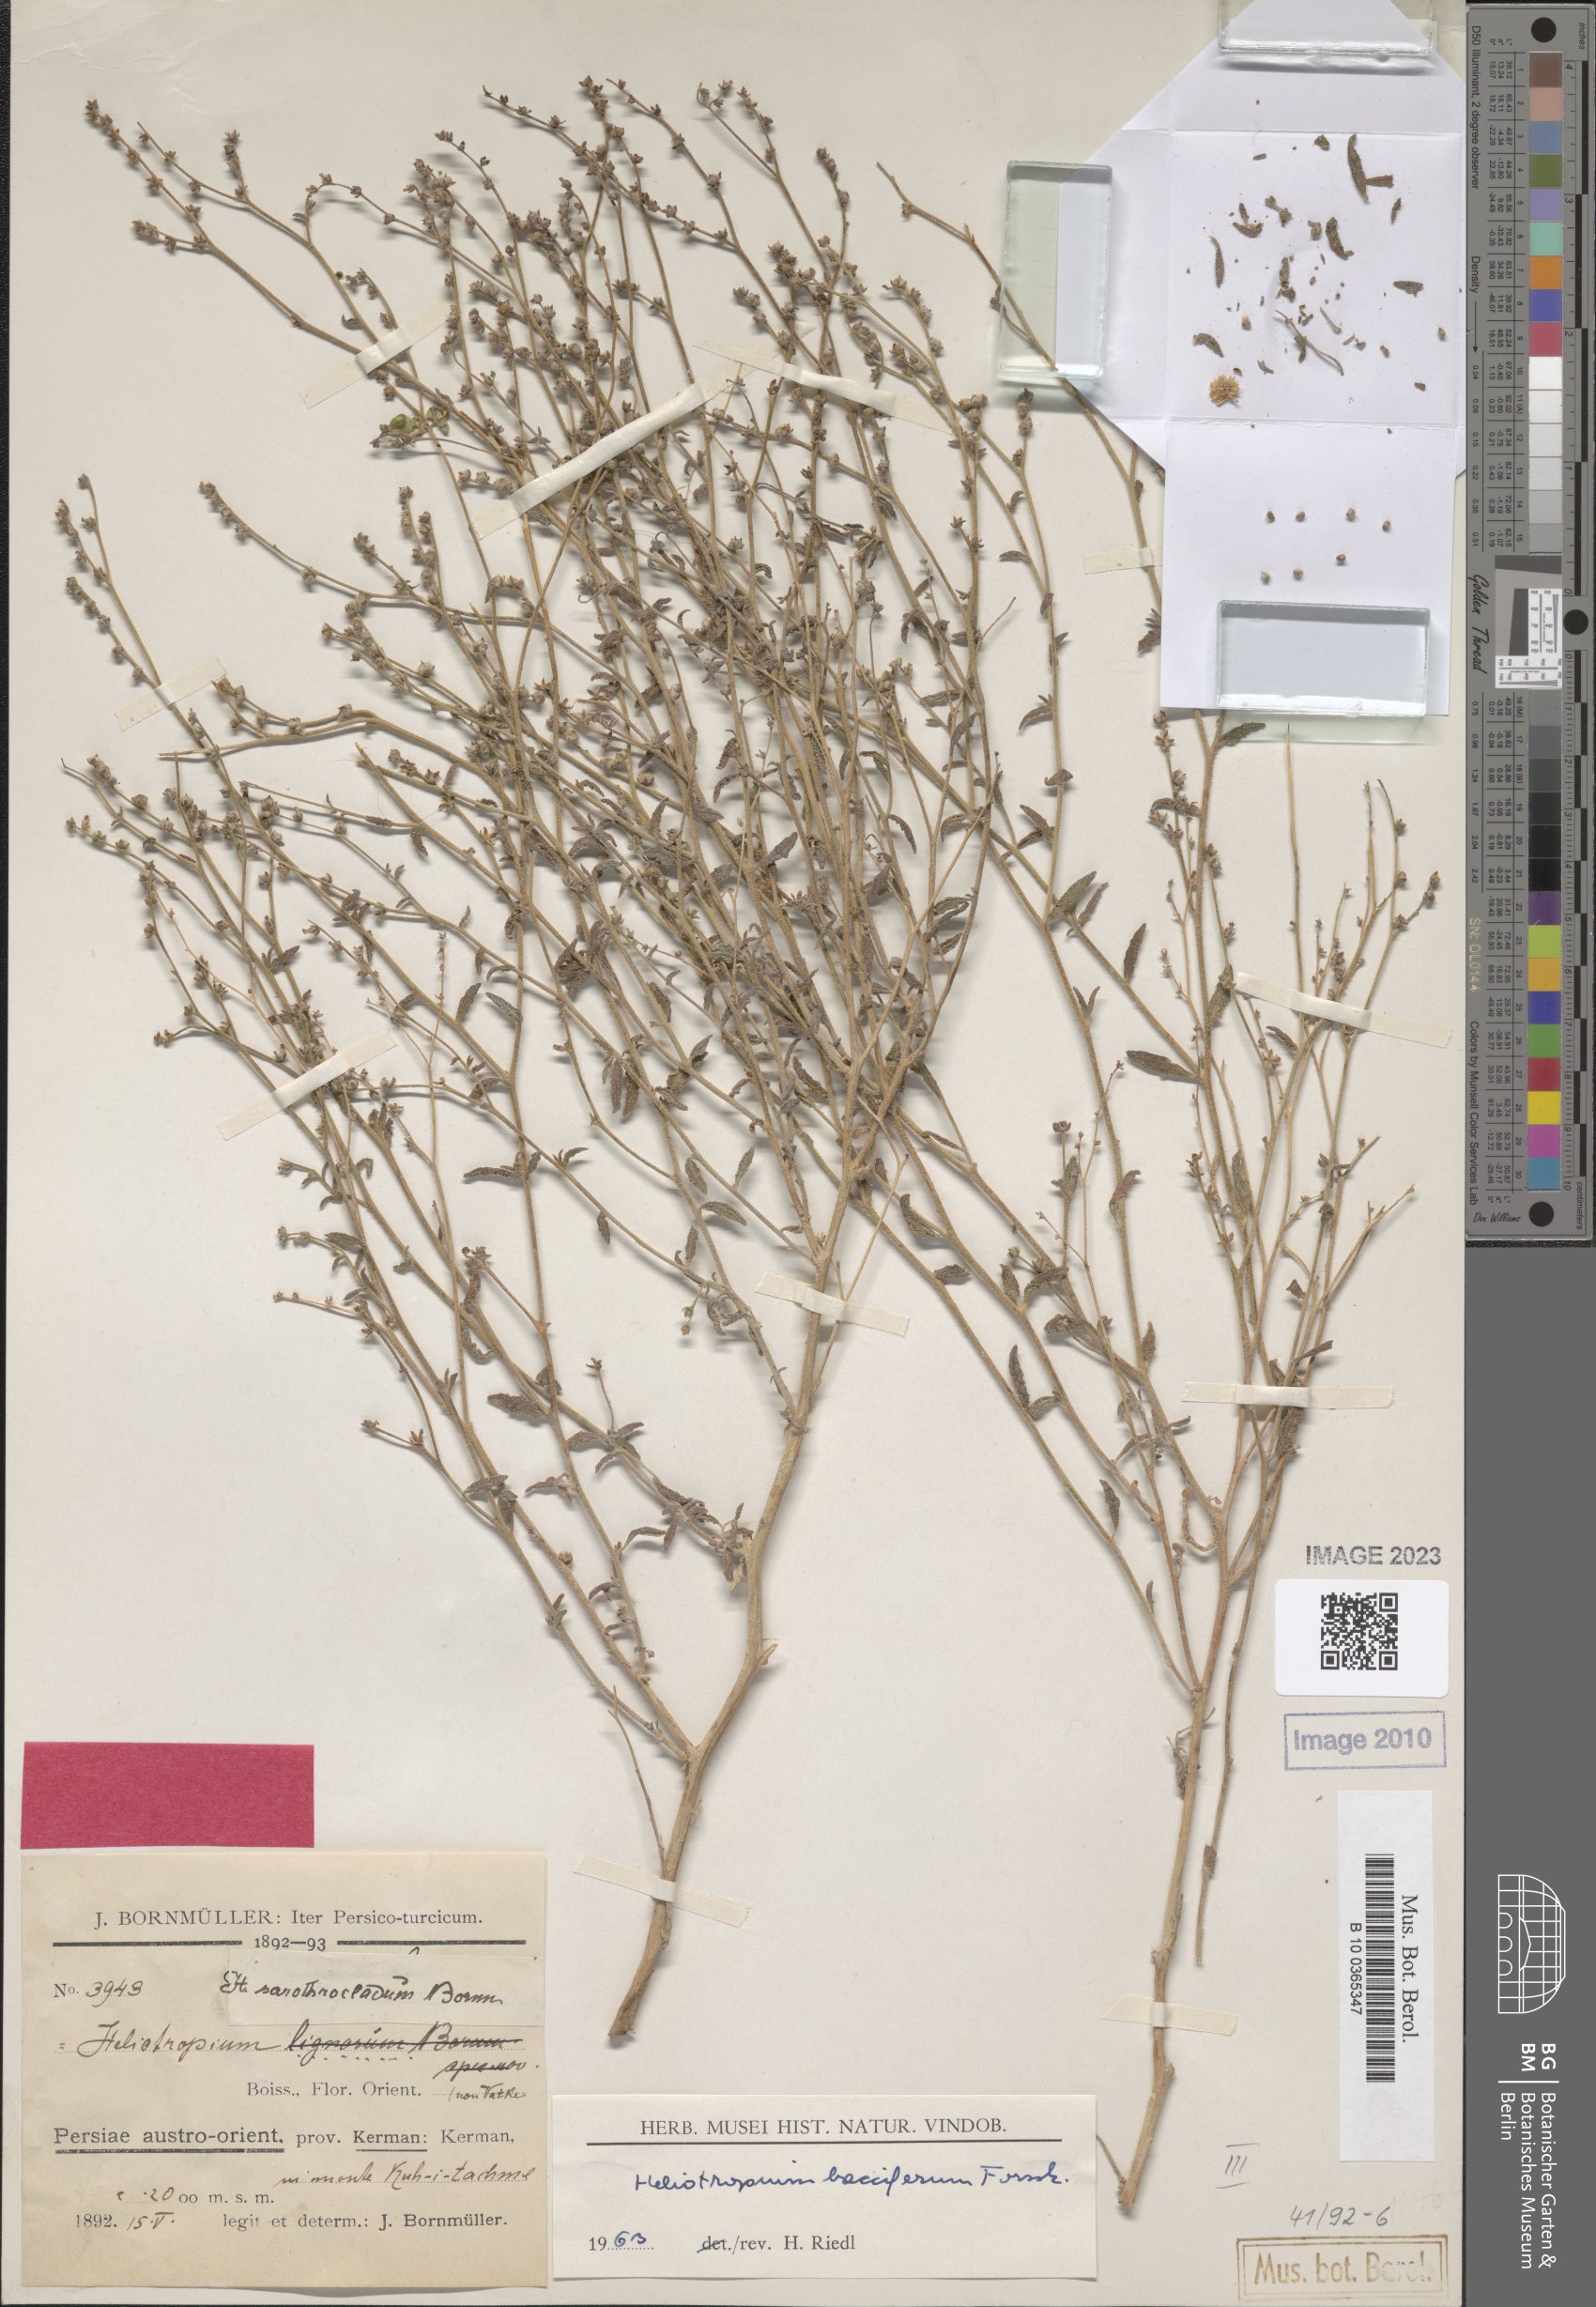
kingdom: Plantae
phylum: Tracheophyta
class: Magnoliopsida
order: Boraginales
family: Heliotropiaceae
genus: Heliotropium
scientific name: Heliotropium bacciferum
